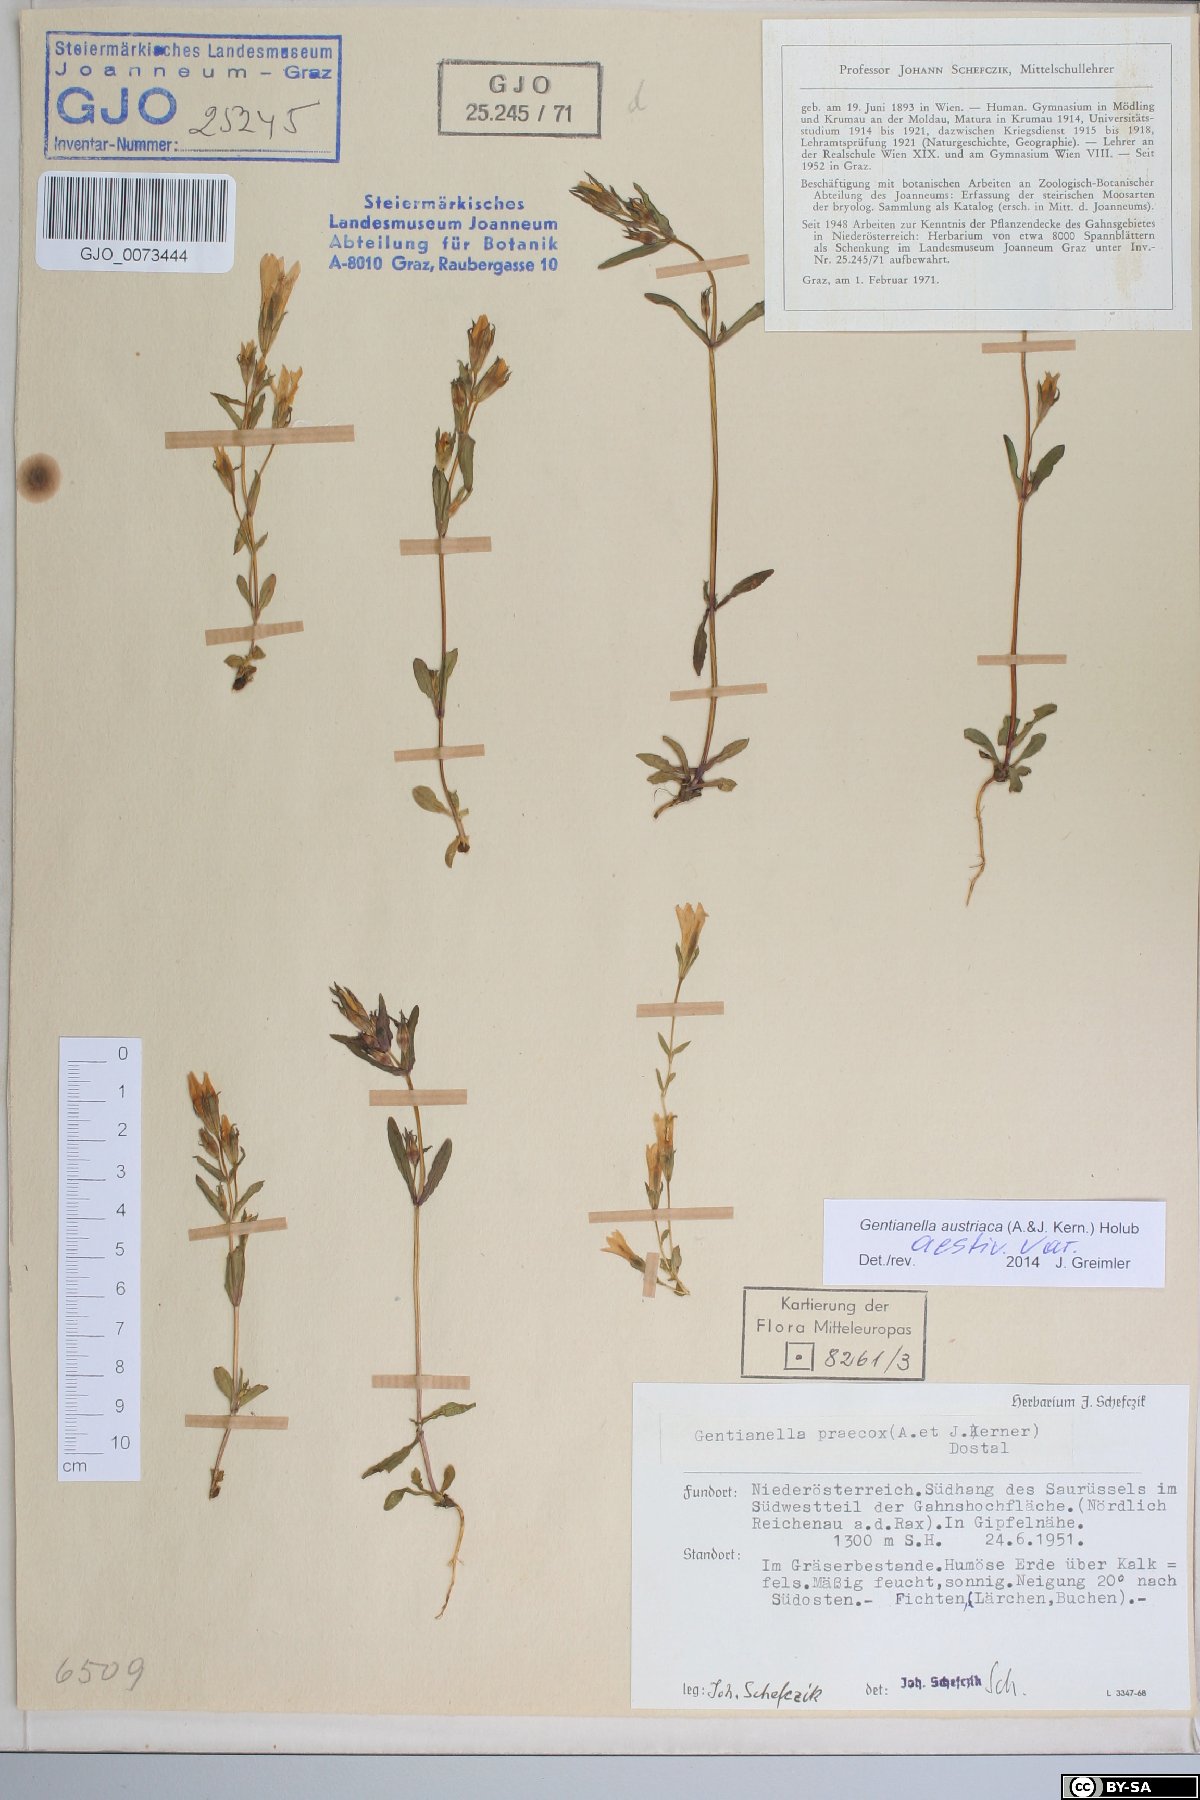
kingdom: Plantae
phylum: Tracheophyta
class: Magnoliopsida
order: Gentianales
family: Gentianaceae
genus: Gentianella
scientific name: Gentianella austriaca
